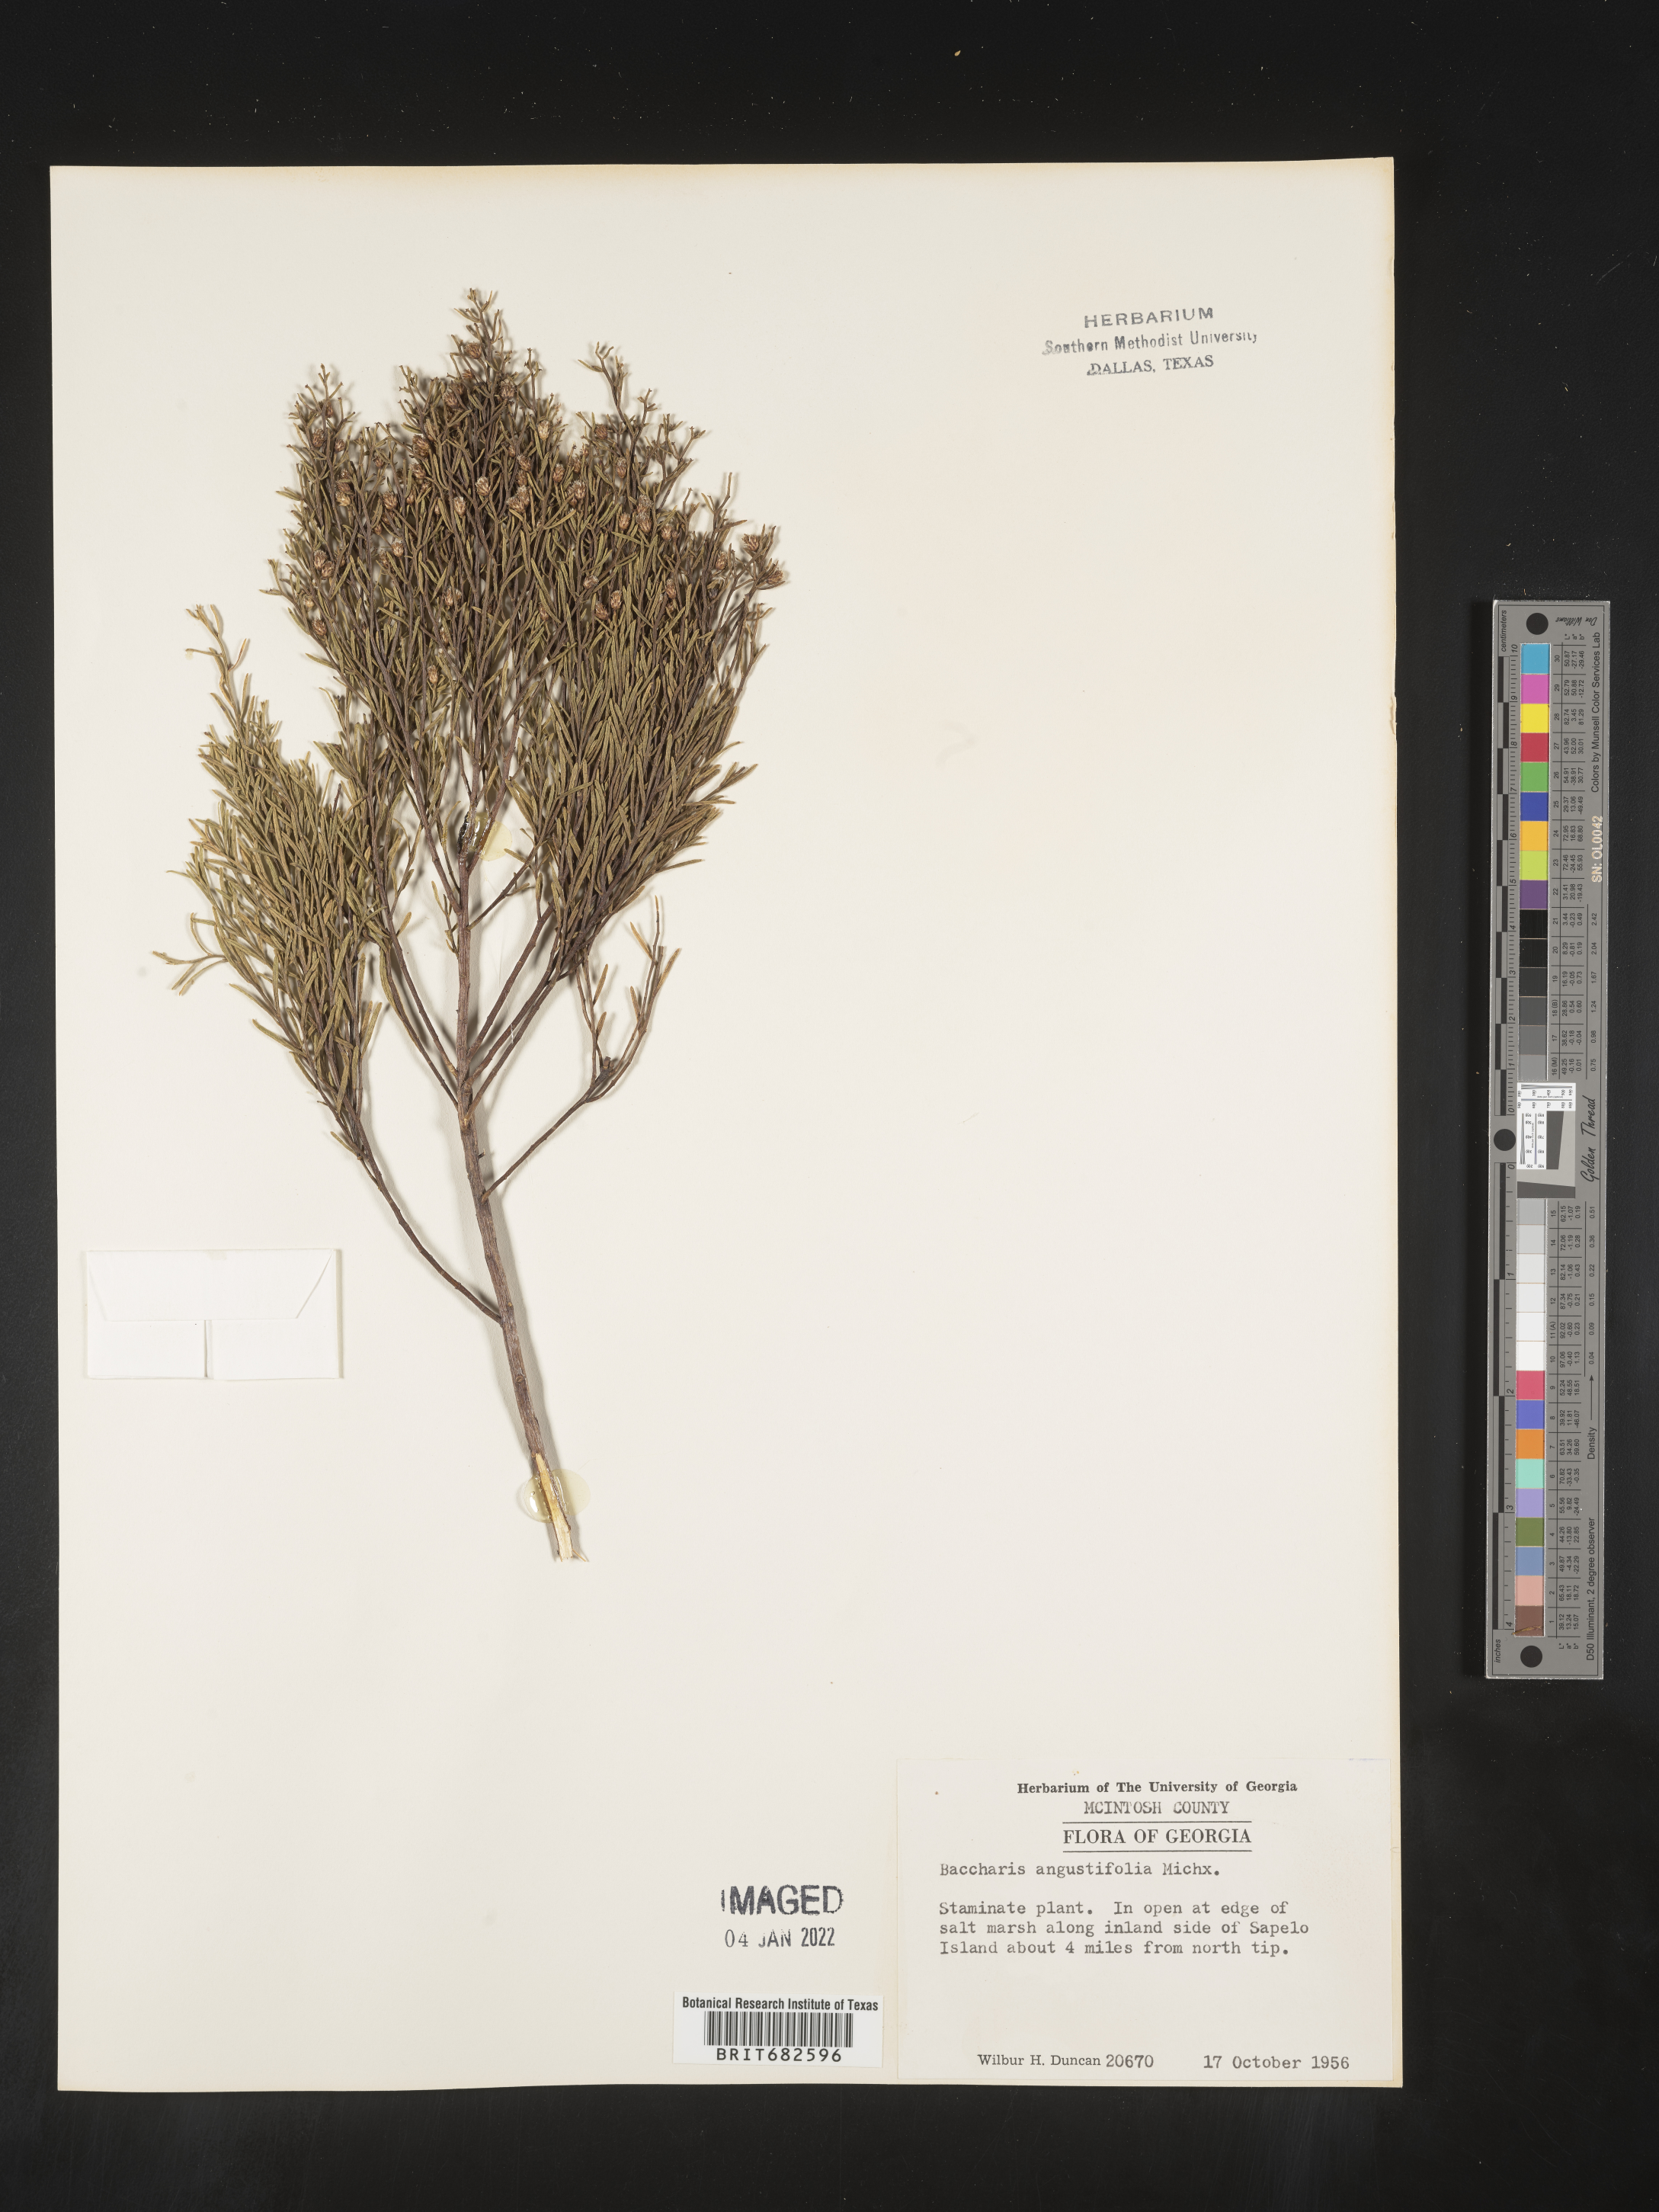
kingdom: Plantae
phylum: Tracheophyta
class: Magnoliopsida
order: Asterales
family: Asteraceae
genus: Baccharis
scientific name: Baccharis angustifolia
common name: Narrow-leaf baccharis
